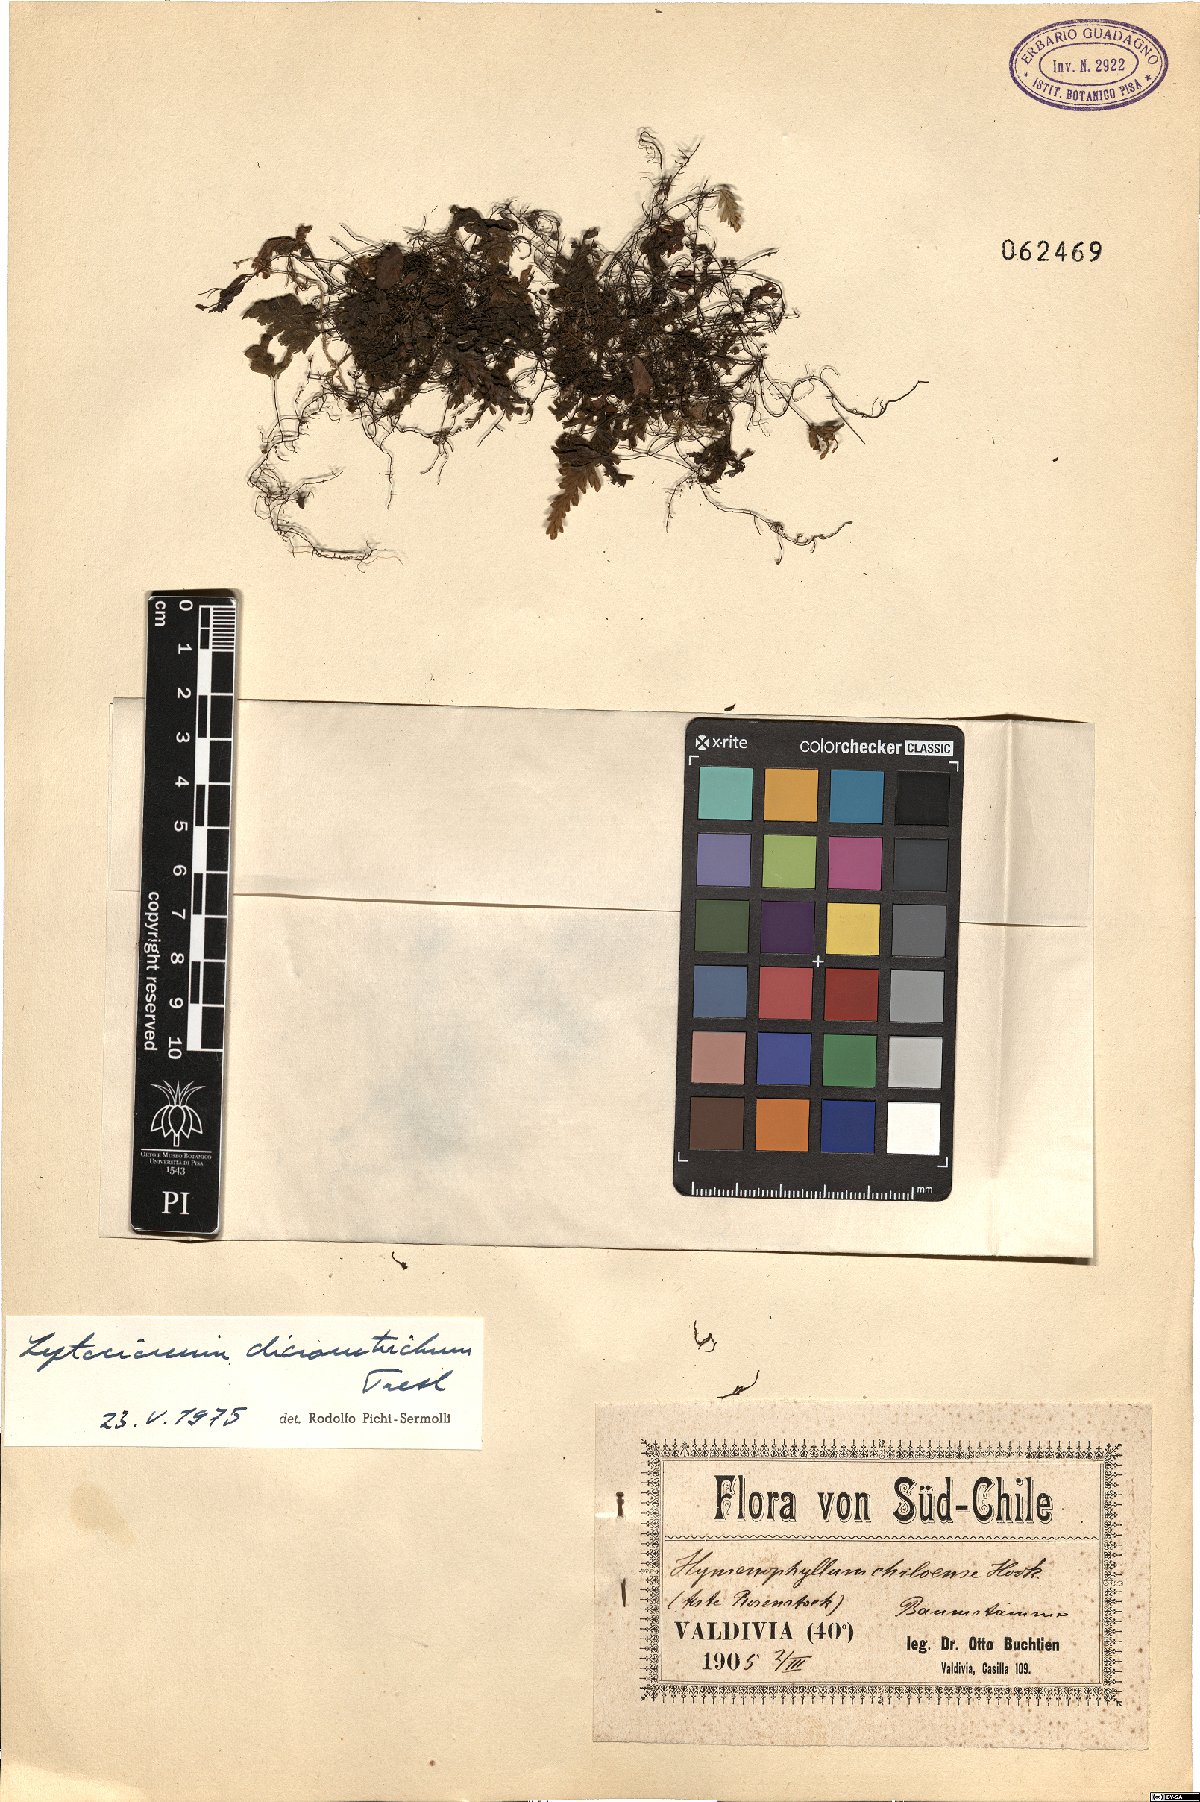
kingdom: Plantae
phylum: Tracheophyta
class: Polypodiopsida
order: Hymenophyllales
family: Hymenophyllaceae
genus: Hymenophyllum
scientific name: Hymenophyllum dicranotrichum
